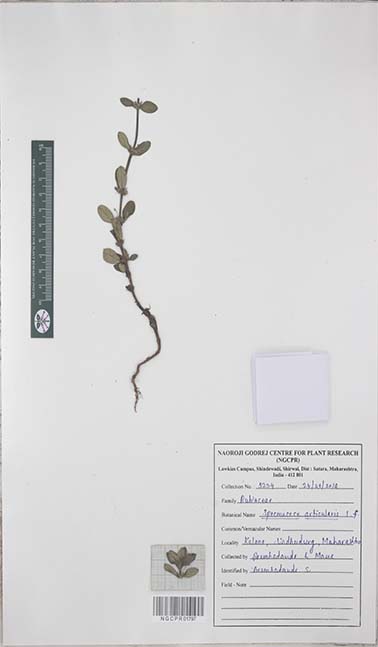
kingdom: Plantae
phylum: Tracheophyta
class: Magnoliopsida
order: Gentianales
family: Rubiaceae
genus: Spermacoce
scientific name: Spermacoce articularis
